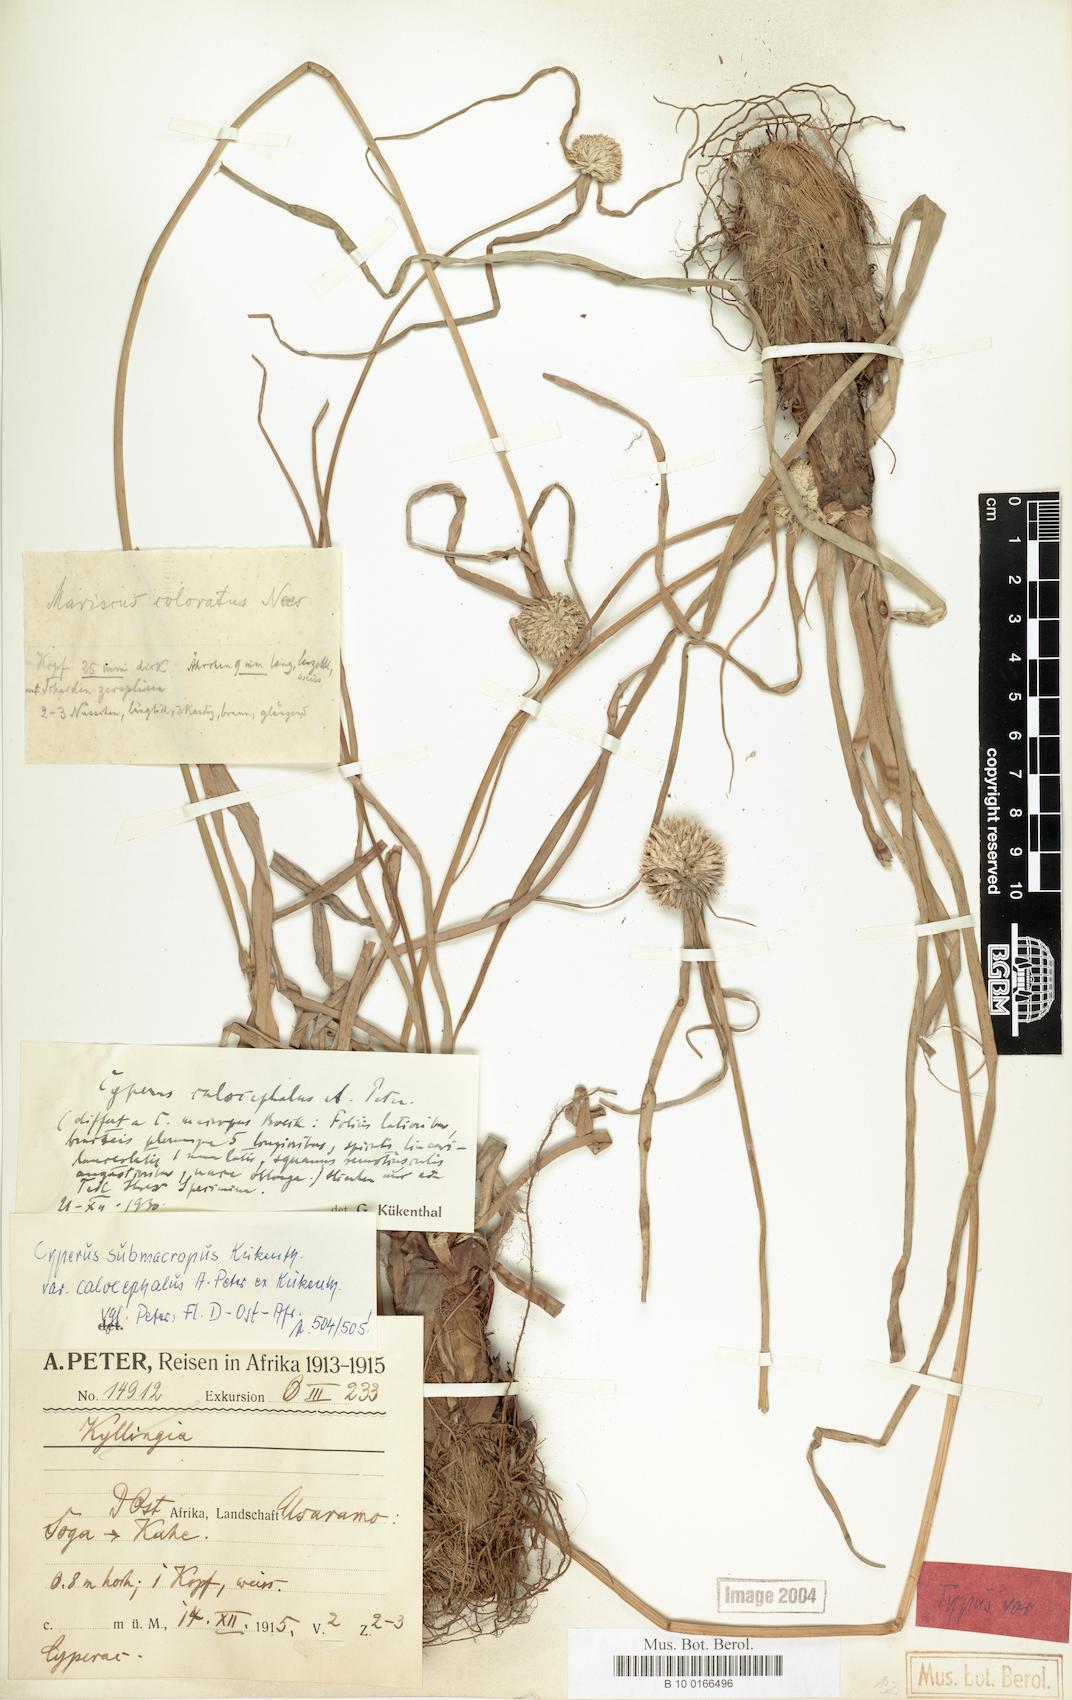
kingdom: Plantae
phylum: Tracheophyta
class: Liliopsida
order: Poales
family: Cyperaceae
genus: Cyperus
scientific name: Cyperus mollipes
